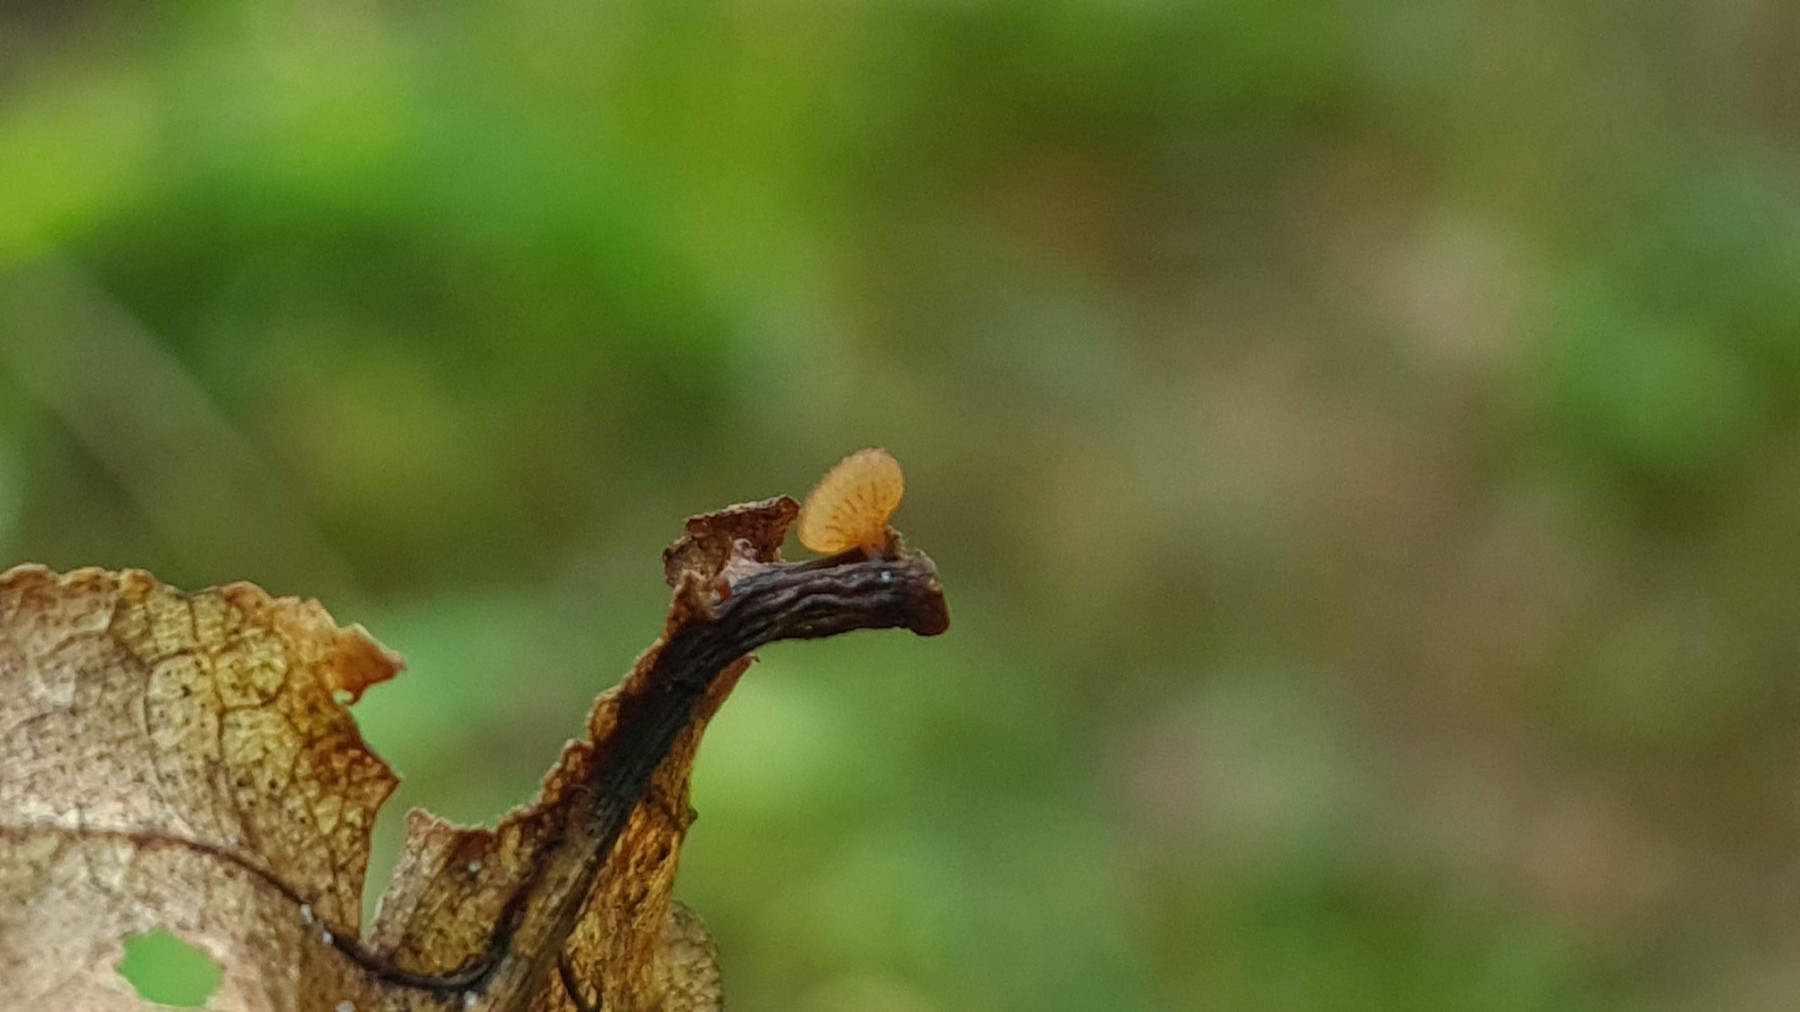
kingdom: Fungi
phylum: Ascomycota
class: Leotiomycetes
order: Helotiales
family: Rutstroemiaceae
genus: Rutstroemia
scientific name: Rutstroemia sydowiana
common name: egeblads-brunskive
